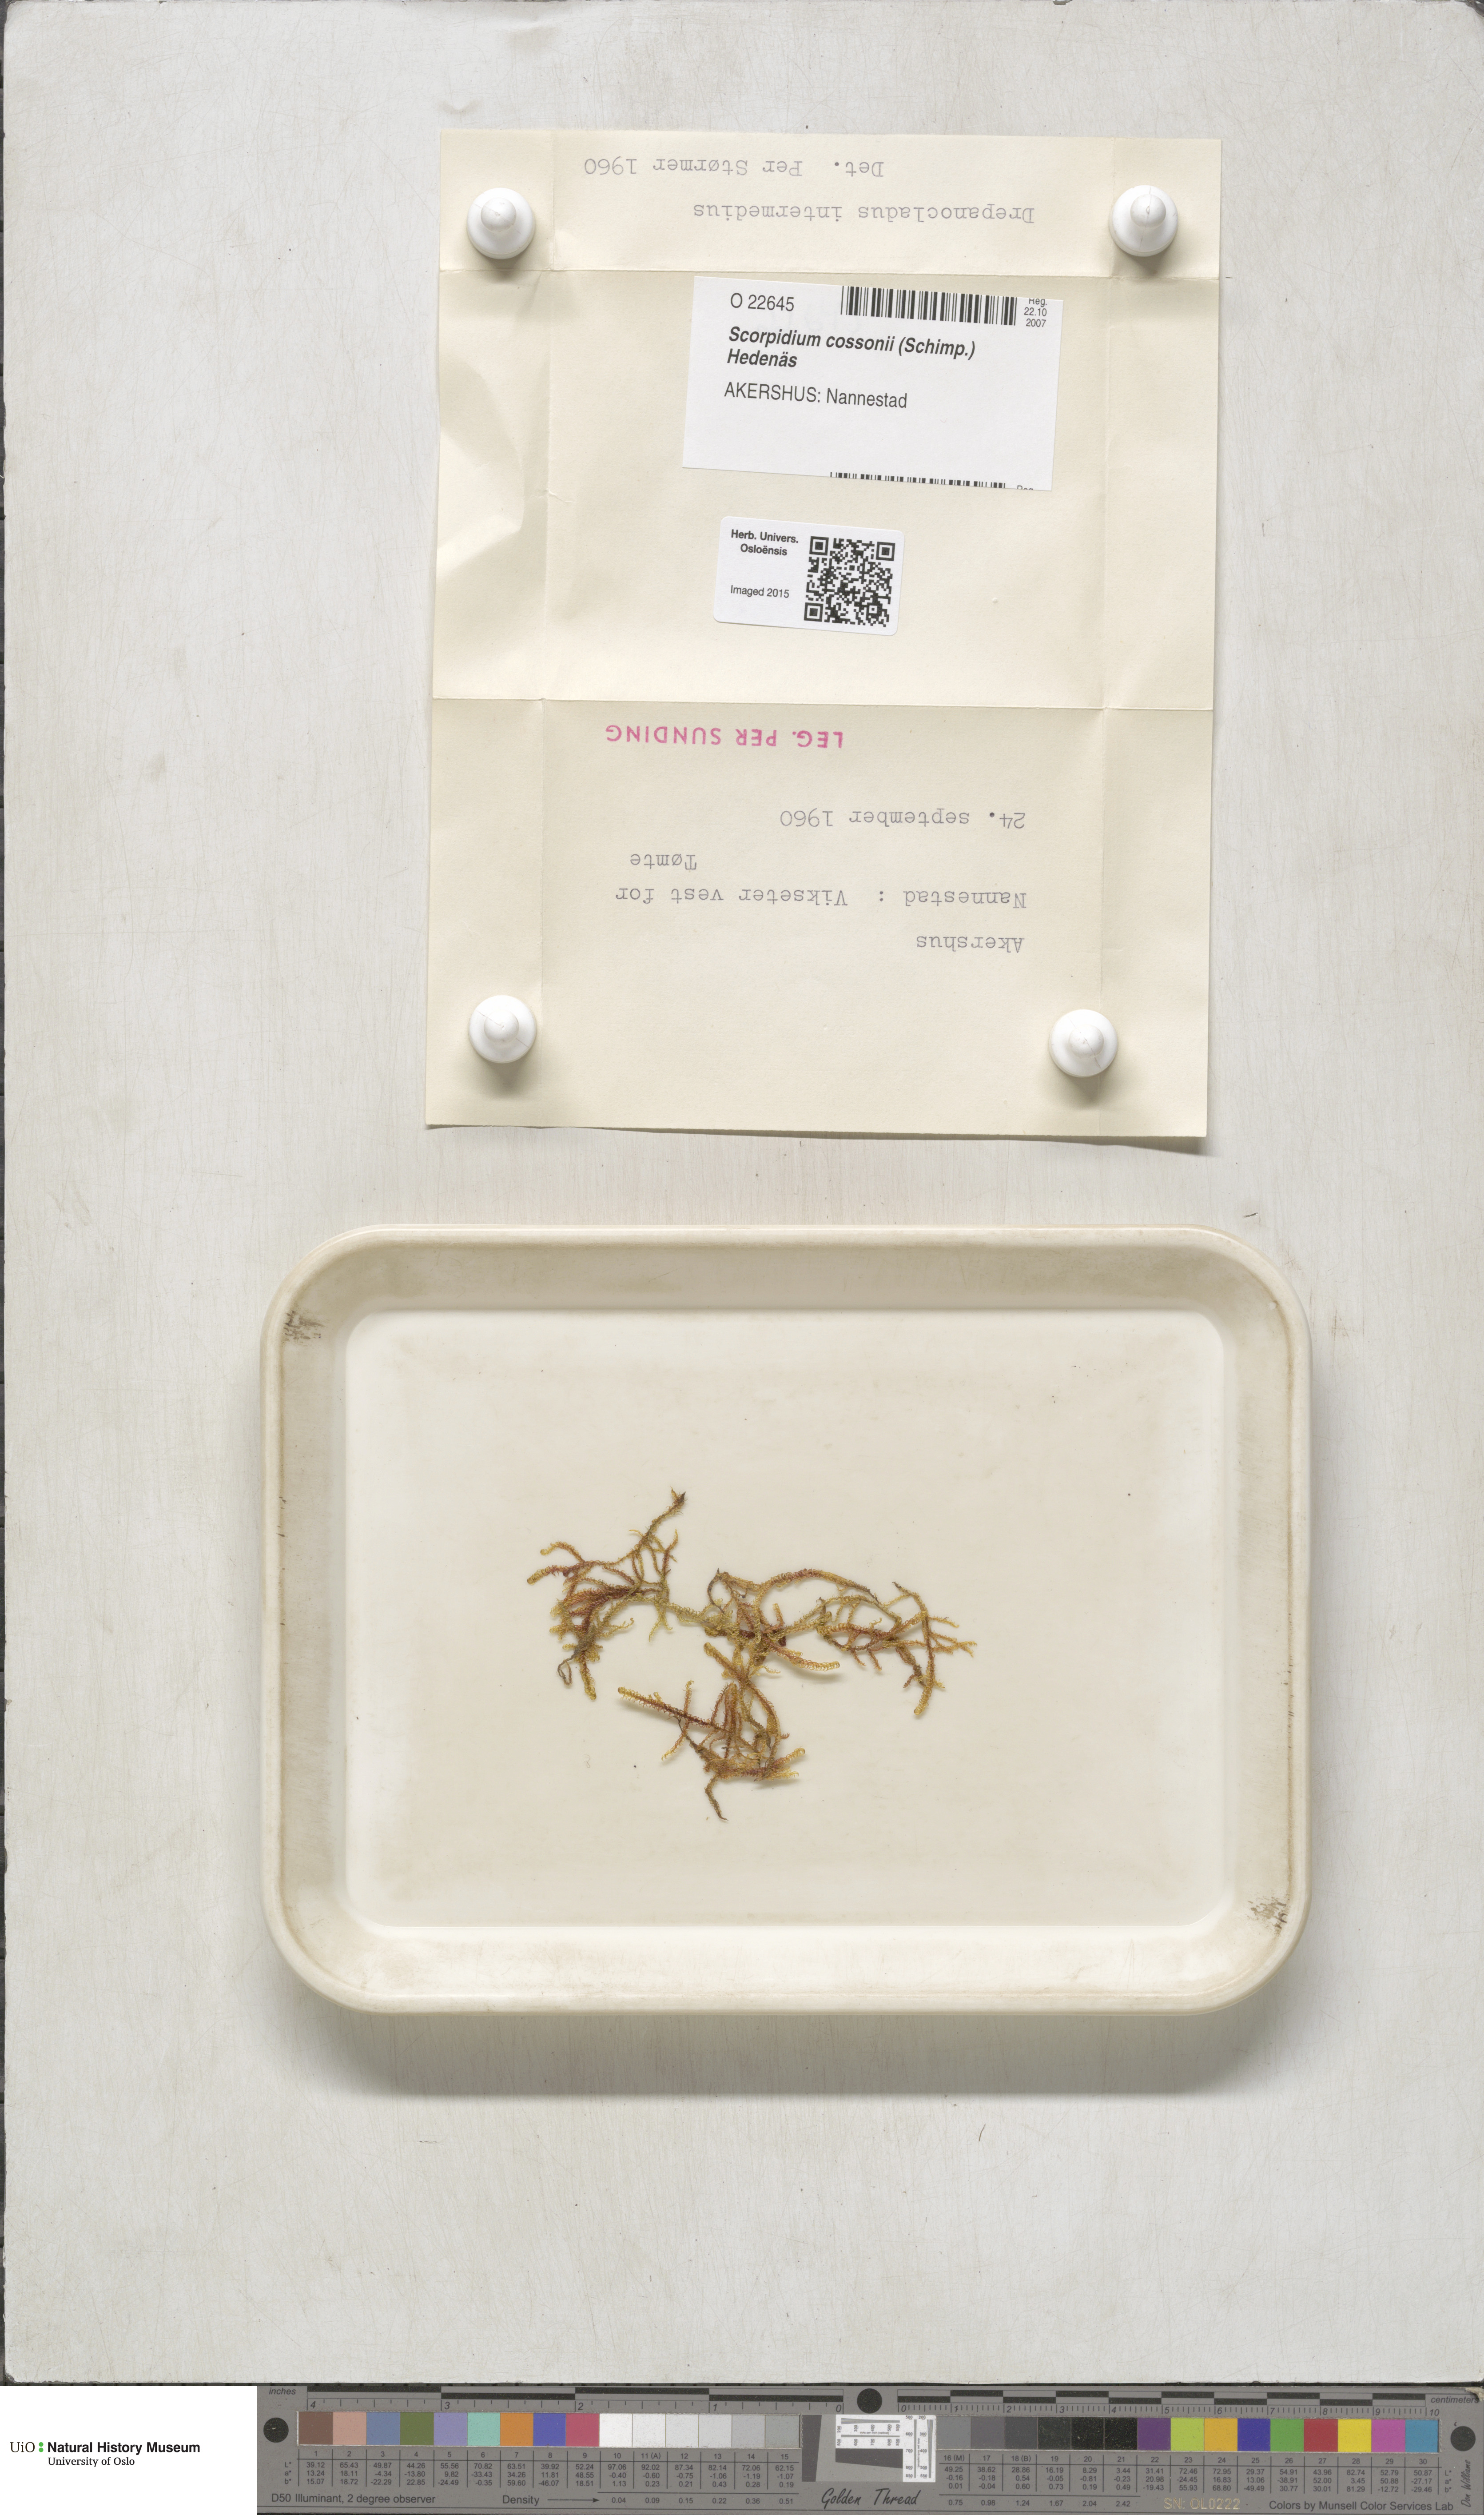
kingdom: Plantae
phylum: Bryophyta
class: Bryopsida
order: Hypnales
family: Scorpidiaceae
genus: Scorpidium
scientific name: Scorpidium cossonii
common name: Cosson's hook moss
